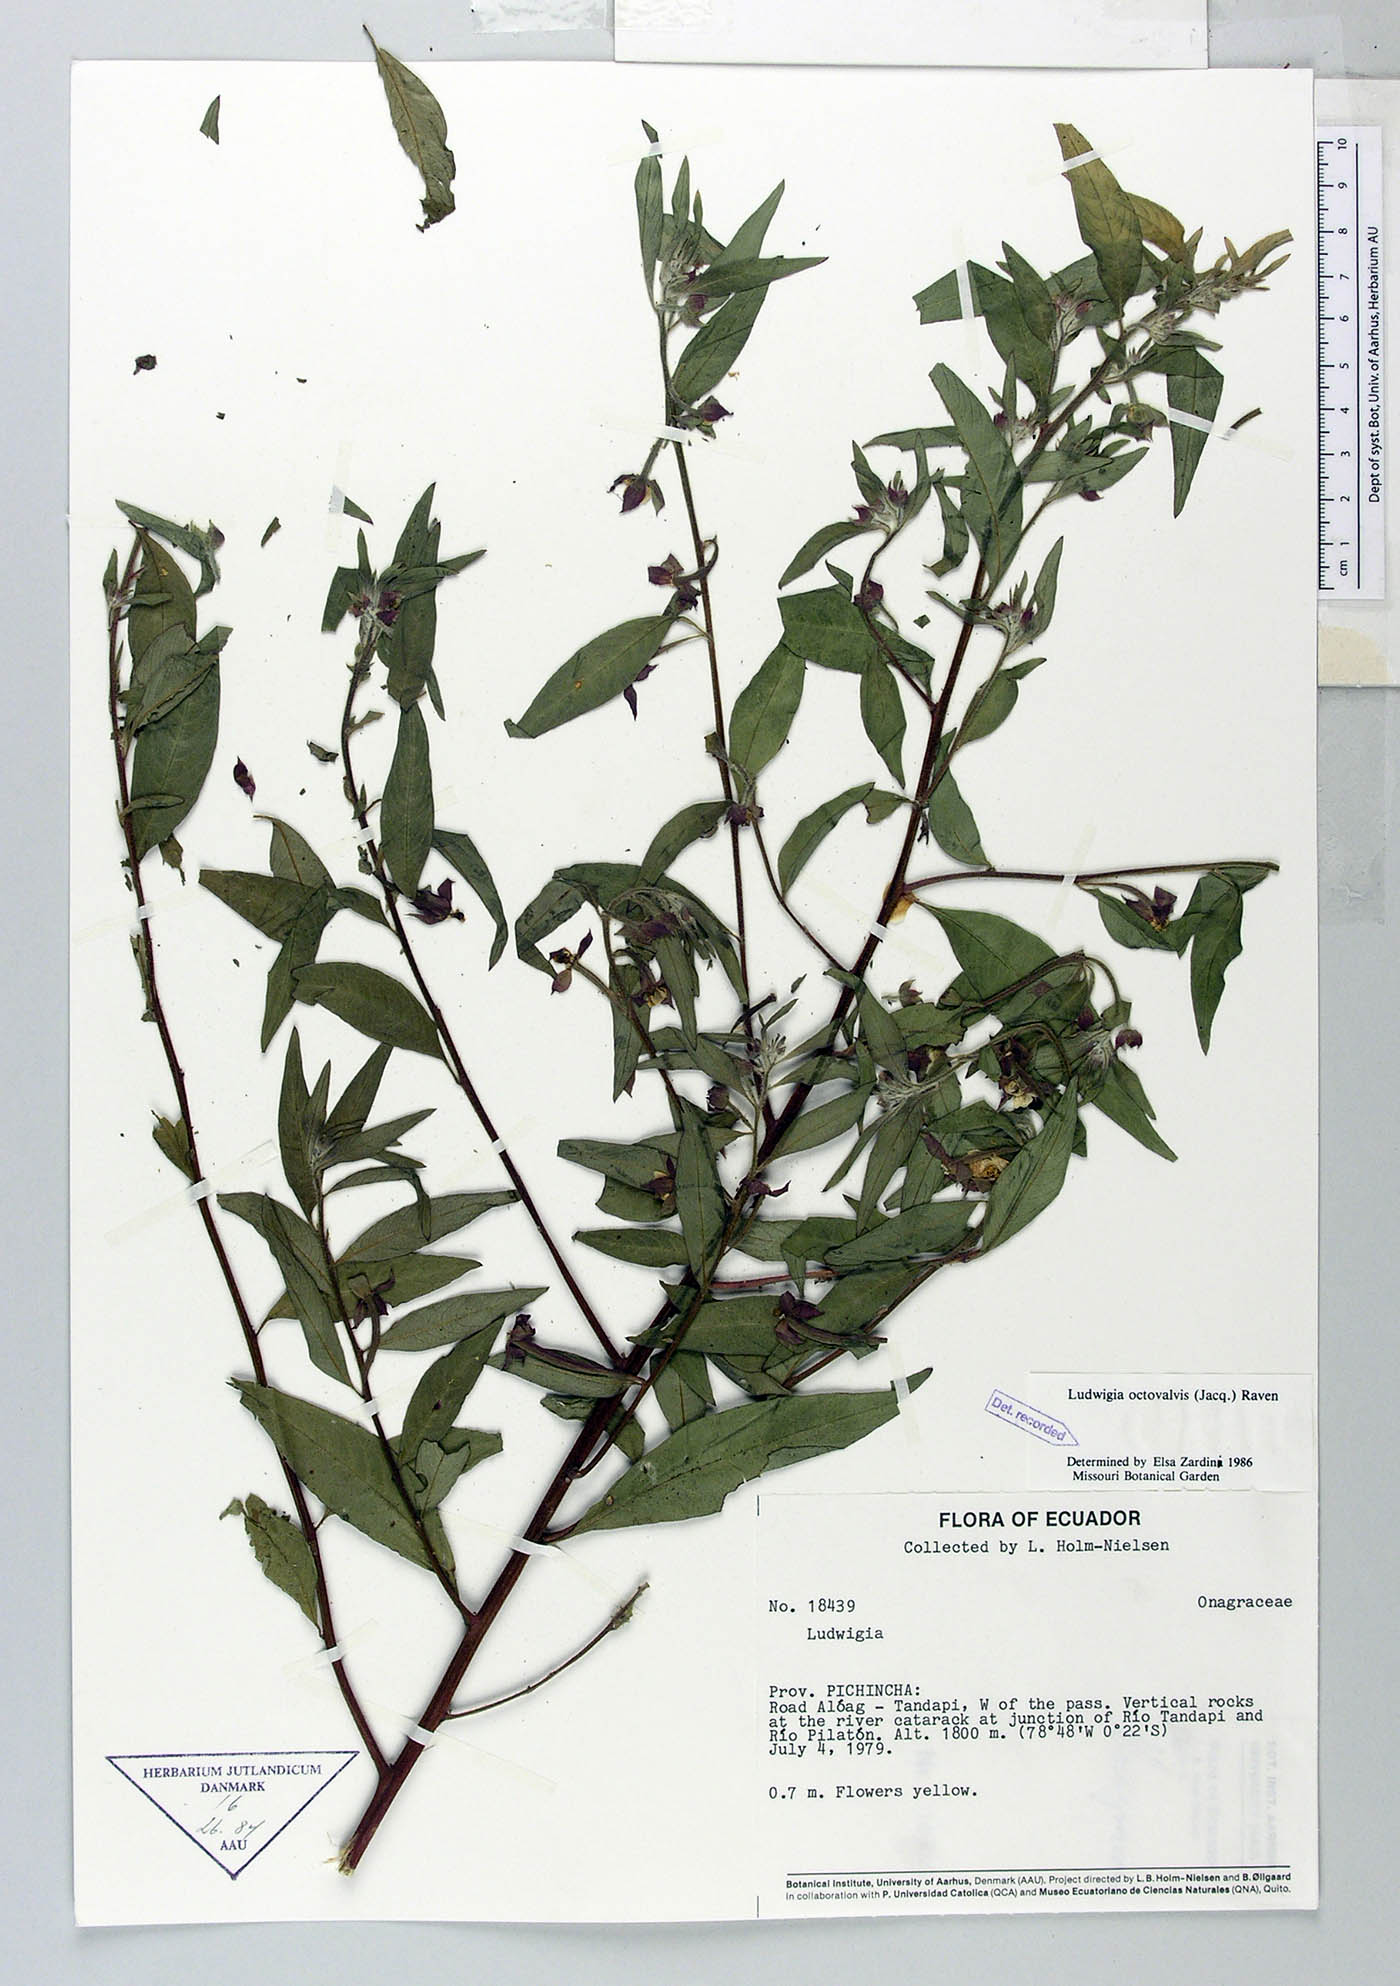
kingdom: Plantae
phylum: Tracheophyta
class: Magnoliopsida
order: Myrtales
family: Onagraceae
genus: Ludwigia
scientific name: Ludwigia octovalvis
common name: Water-primrose
